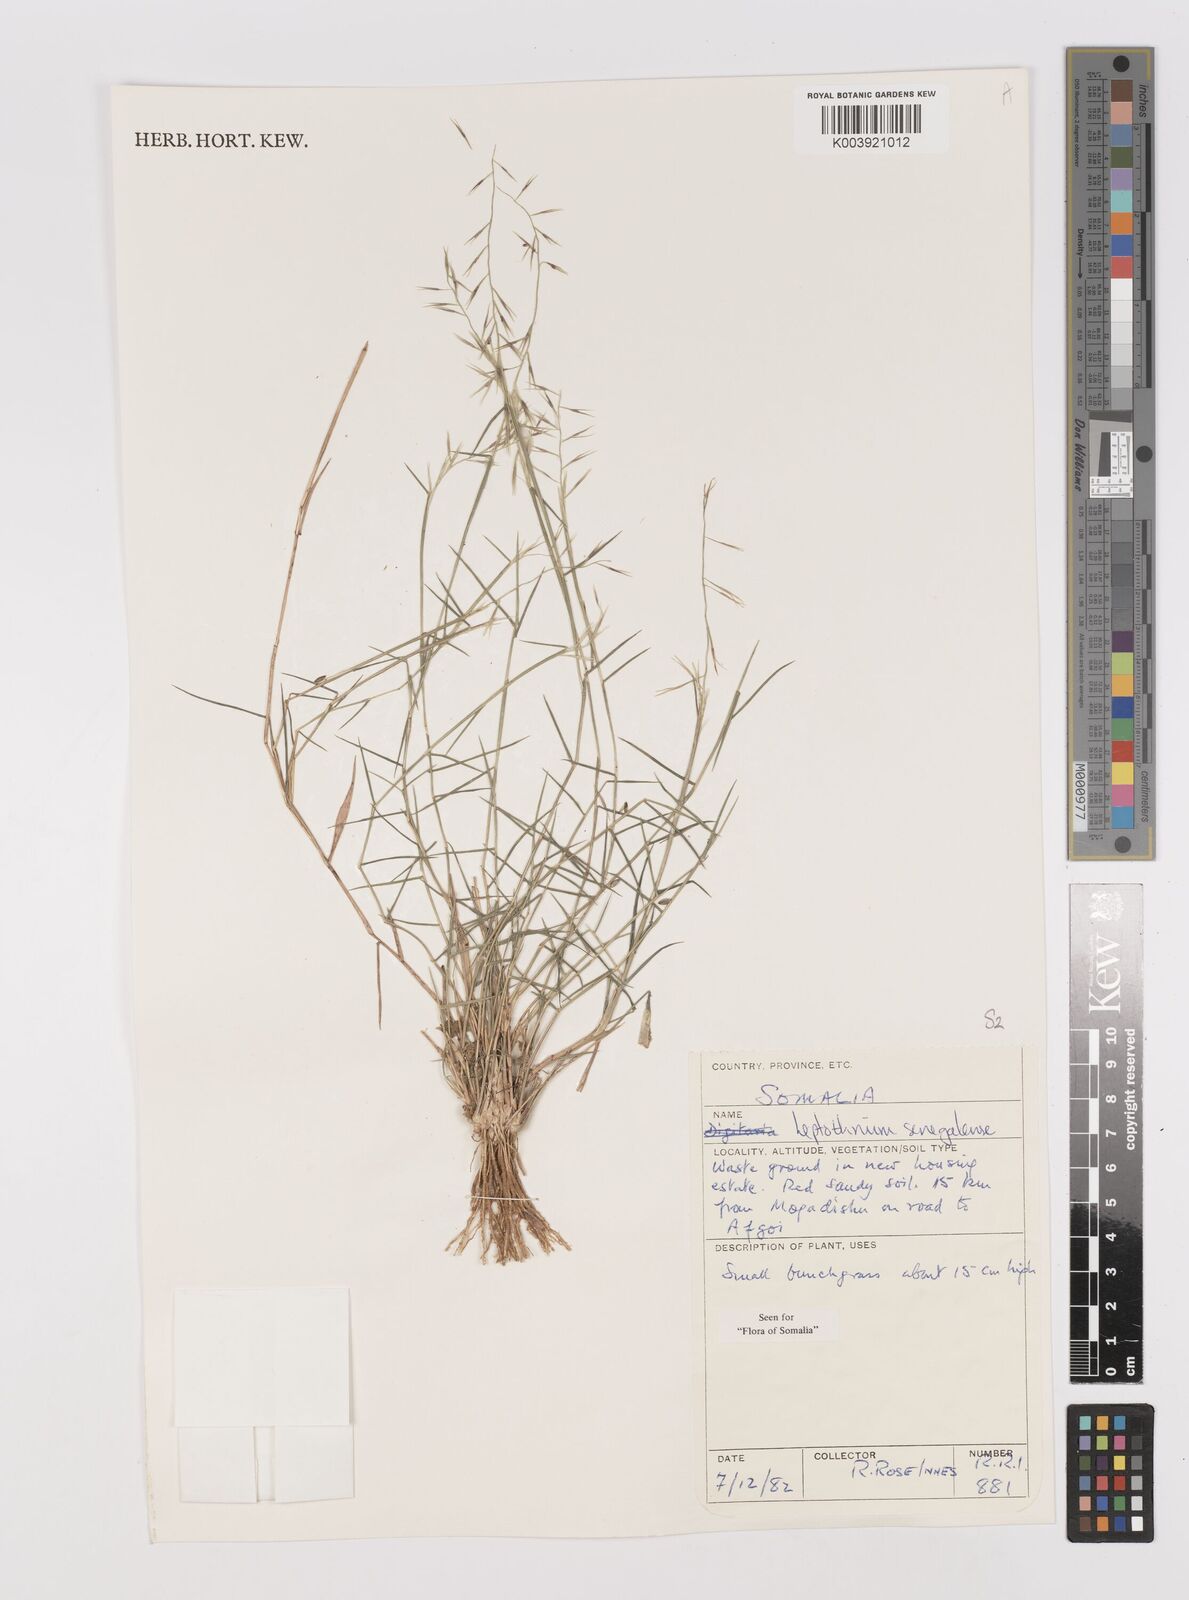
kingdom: Plantae
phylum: Tracheophyta
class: Liliopsida
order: Poales
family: Poaceae
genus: Leptothrium
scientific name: Leptothrium senegalense
